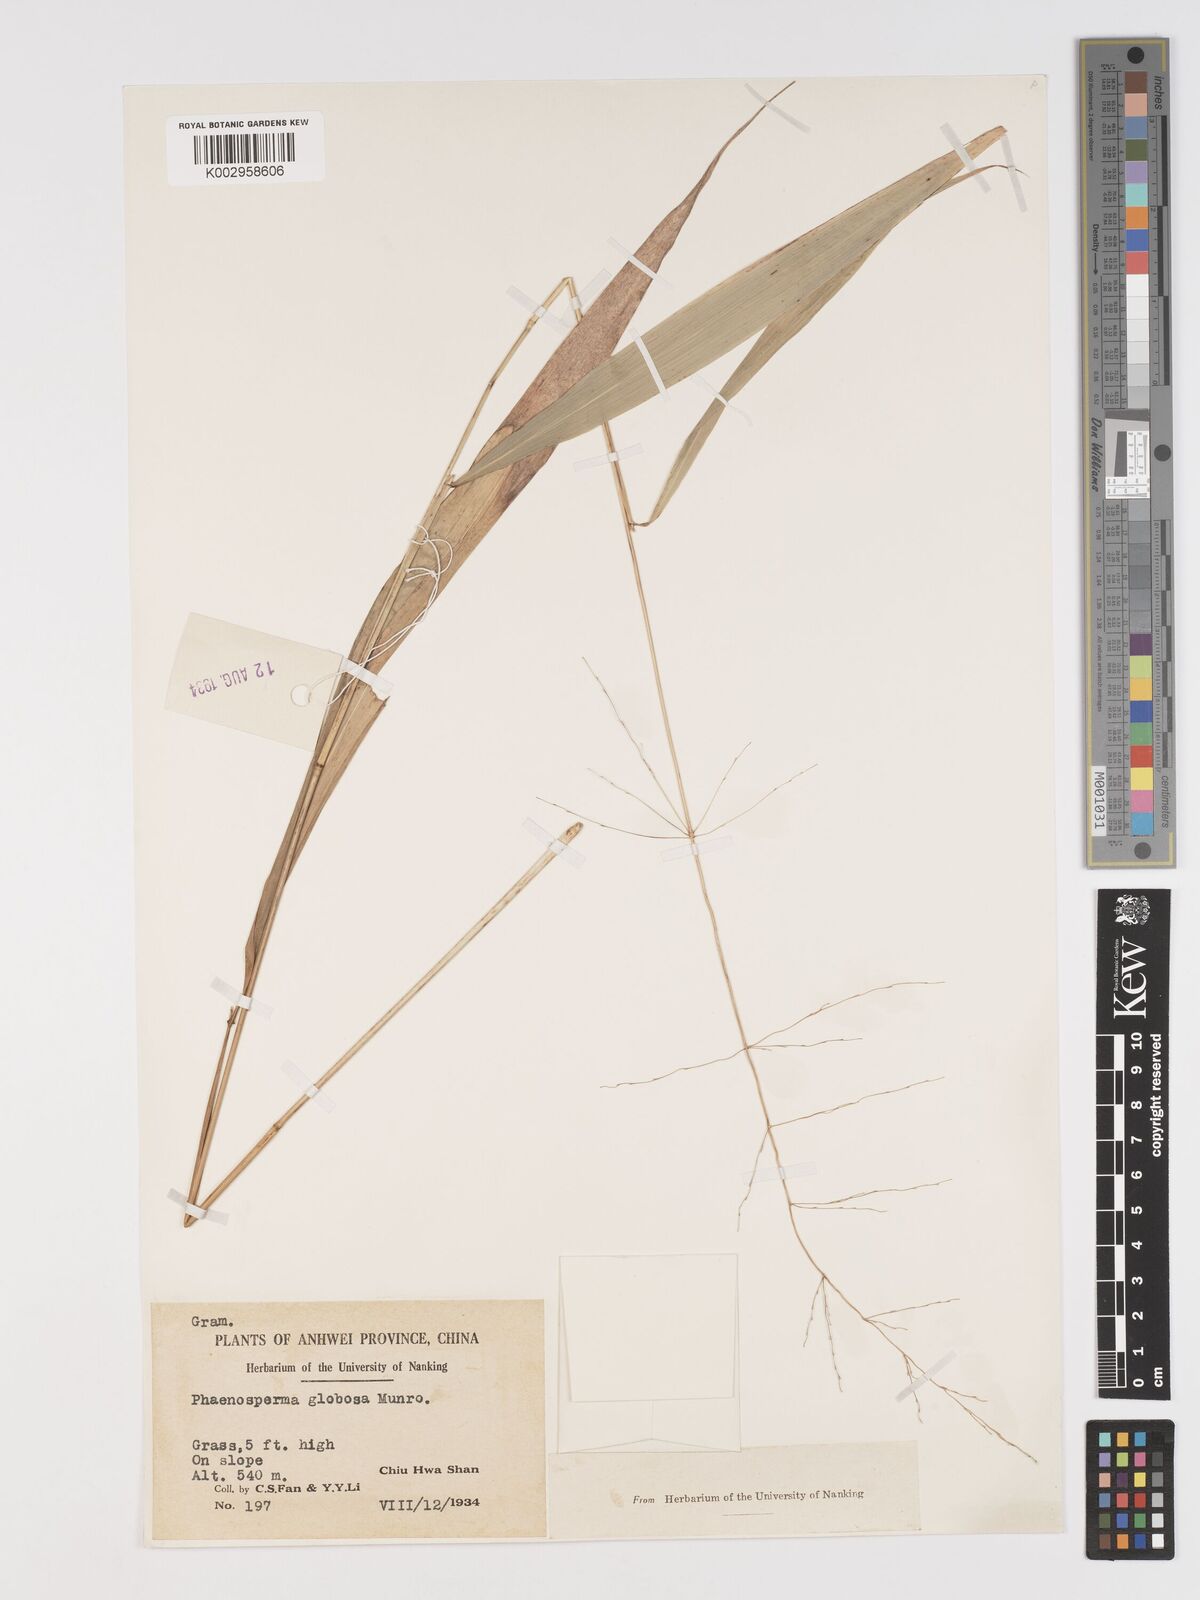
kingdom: Plantae
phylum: Tracheophyta
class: Liliopsida
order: Poales
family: Poaceae
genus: Phaenosperma
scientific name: Phaenosperma globosum
